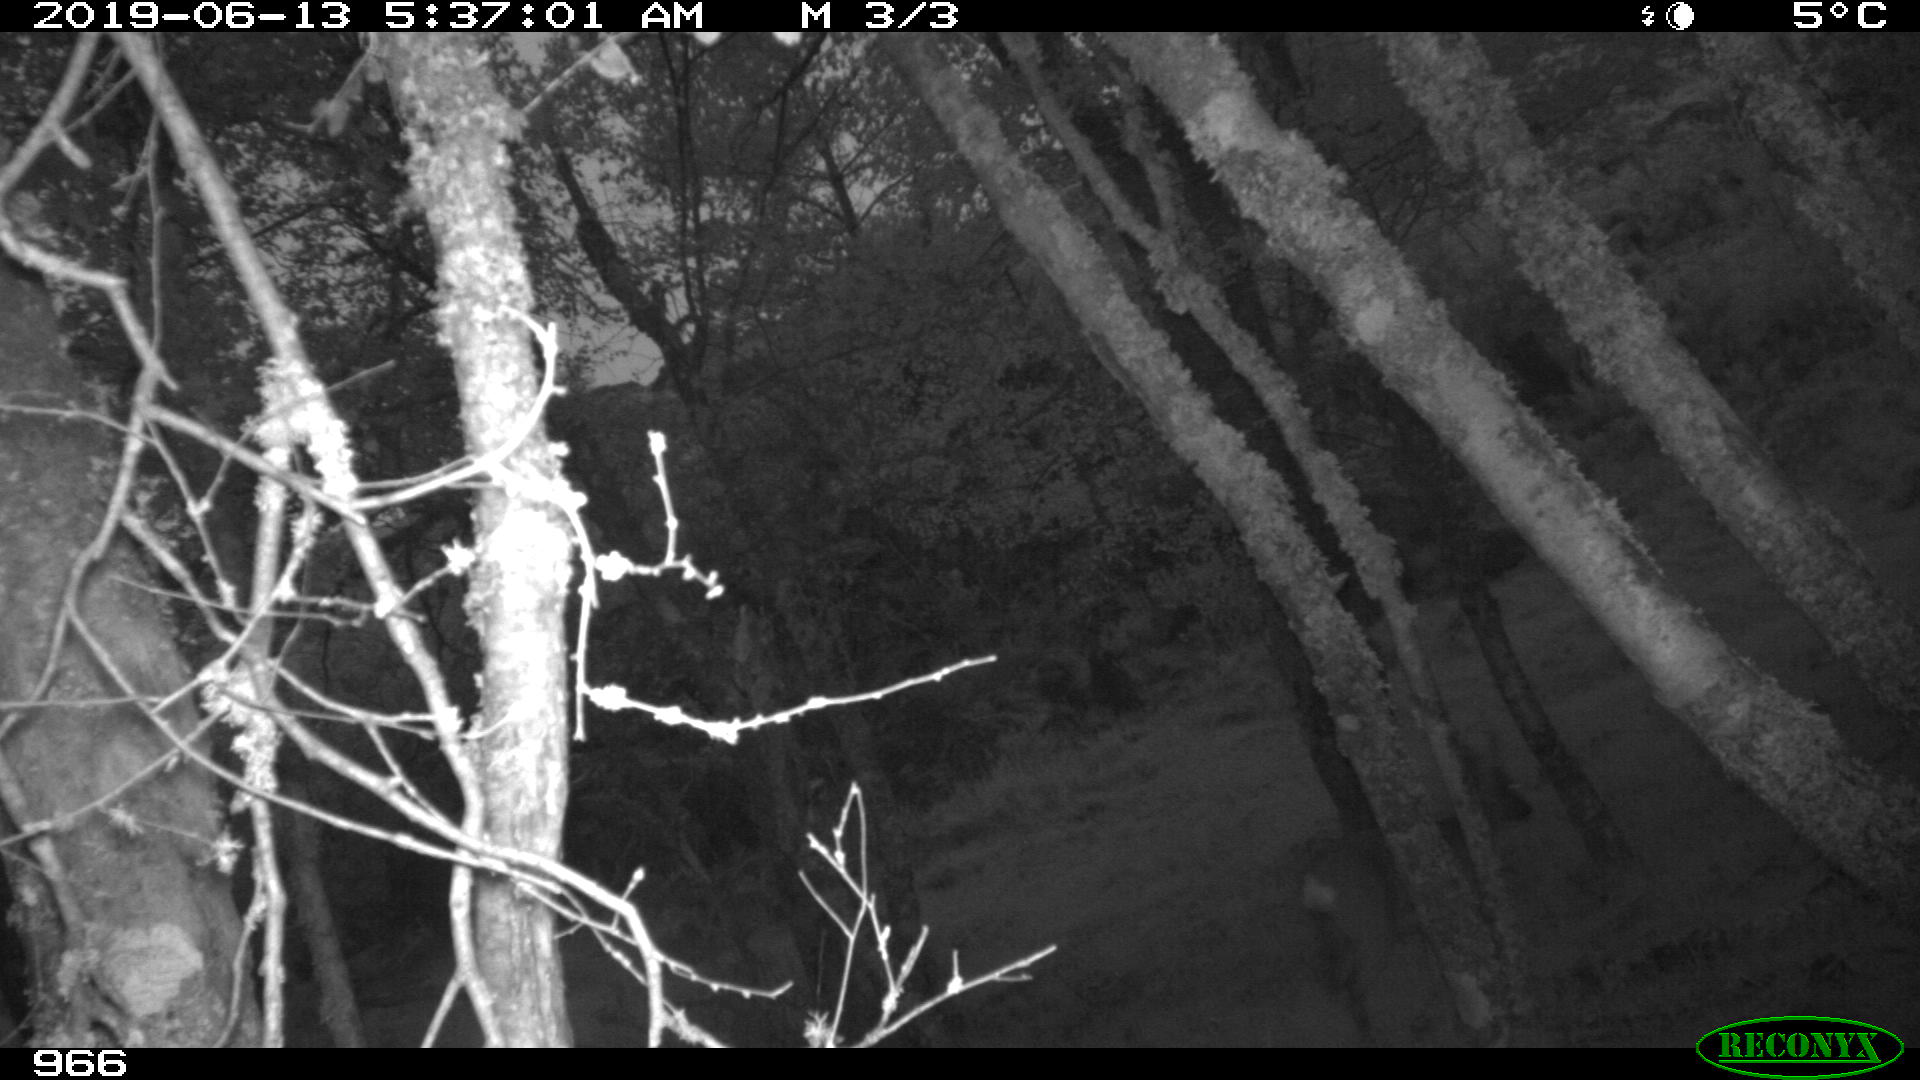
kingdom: Animalia
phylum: Chordata
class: Mammalia
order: Artiodactyla
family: Cervidae
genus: Capreolus
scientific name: Capreolus capreolus
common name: Western roe deer
